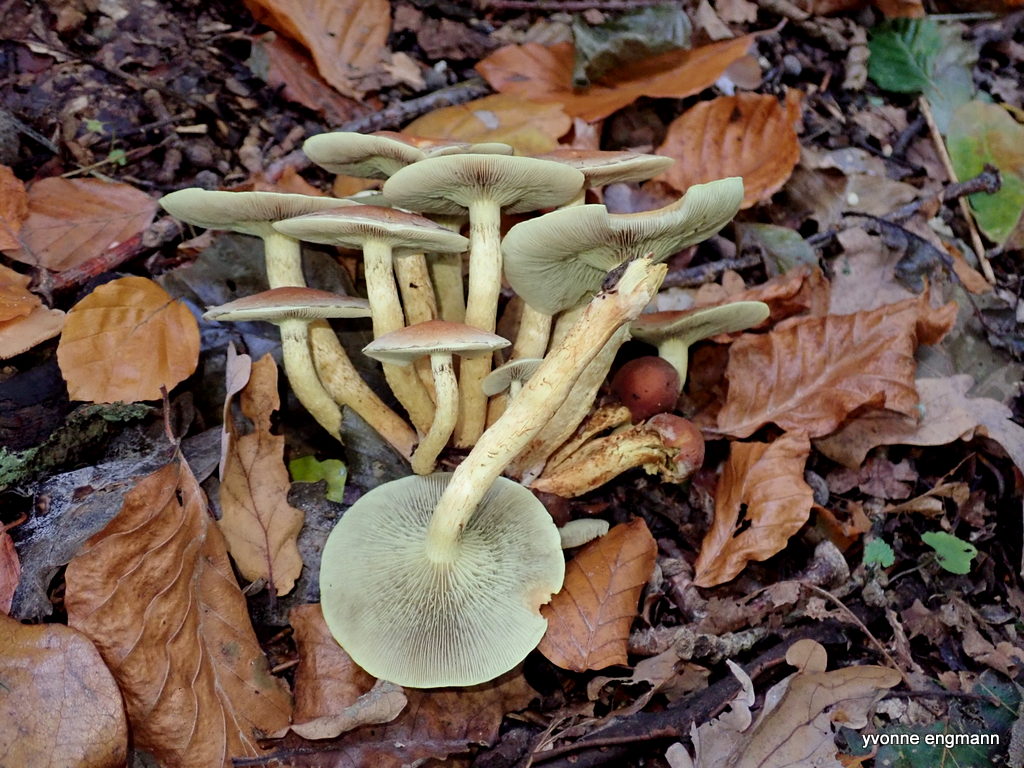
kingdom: Fungi
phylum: Basidiomycota
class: Agaricomycetes
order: Agaricales
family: Strophariaceae
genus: Hypholoma
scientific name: Hypholoma fasciculare
